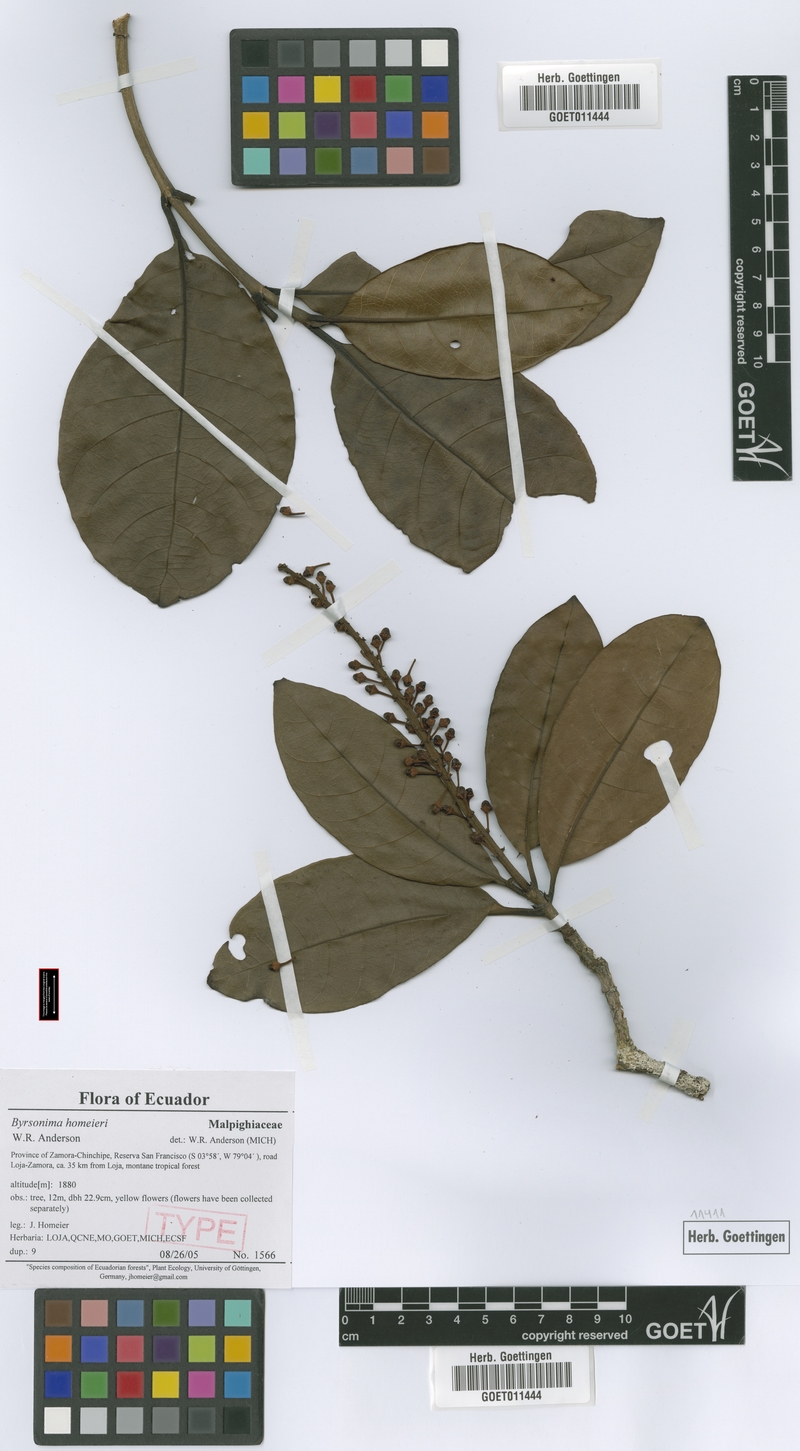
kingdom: Plantae
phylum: Tracheophyta
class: Magnoliopsida
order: Malpighiales
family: Malpighiaceae
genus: Byrsonima
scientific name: Byrsonima homeieri
